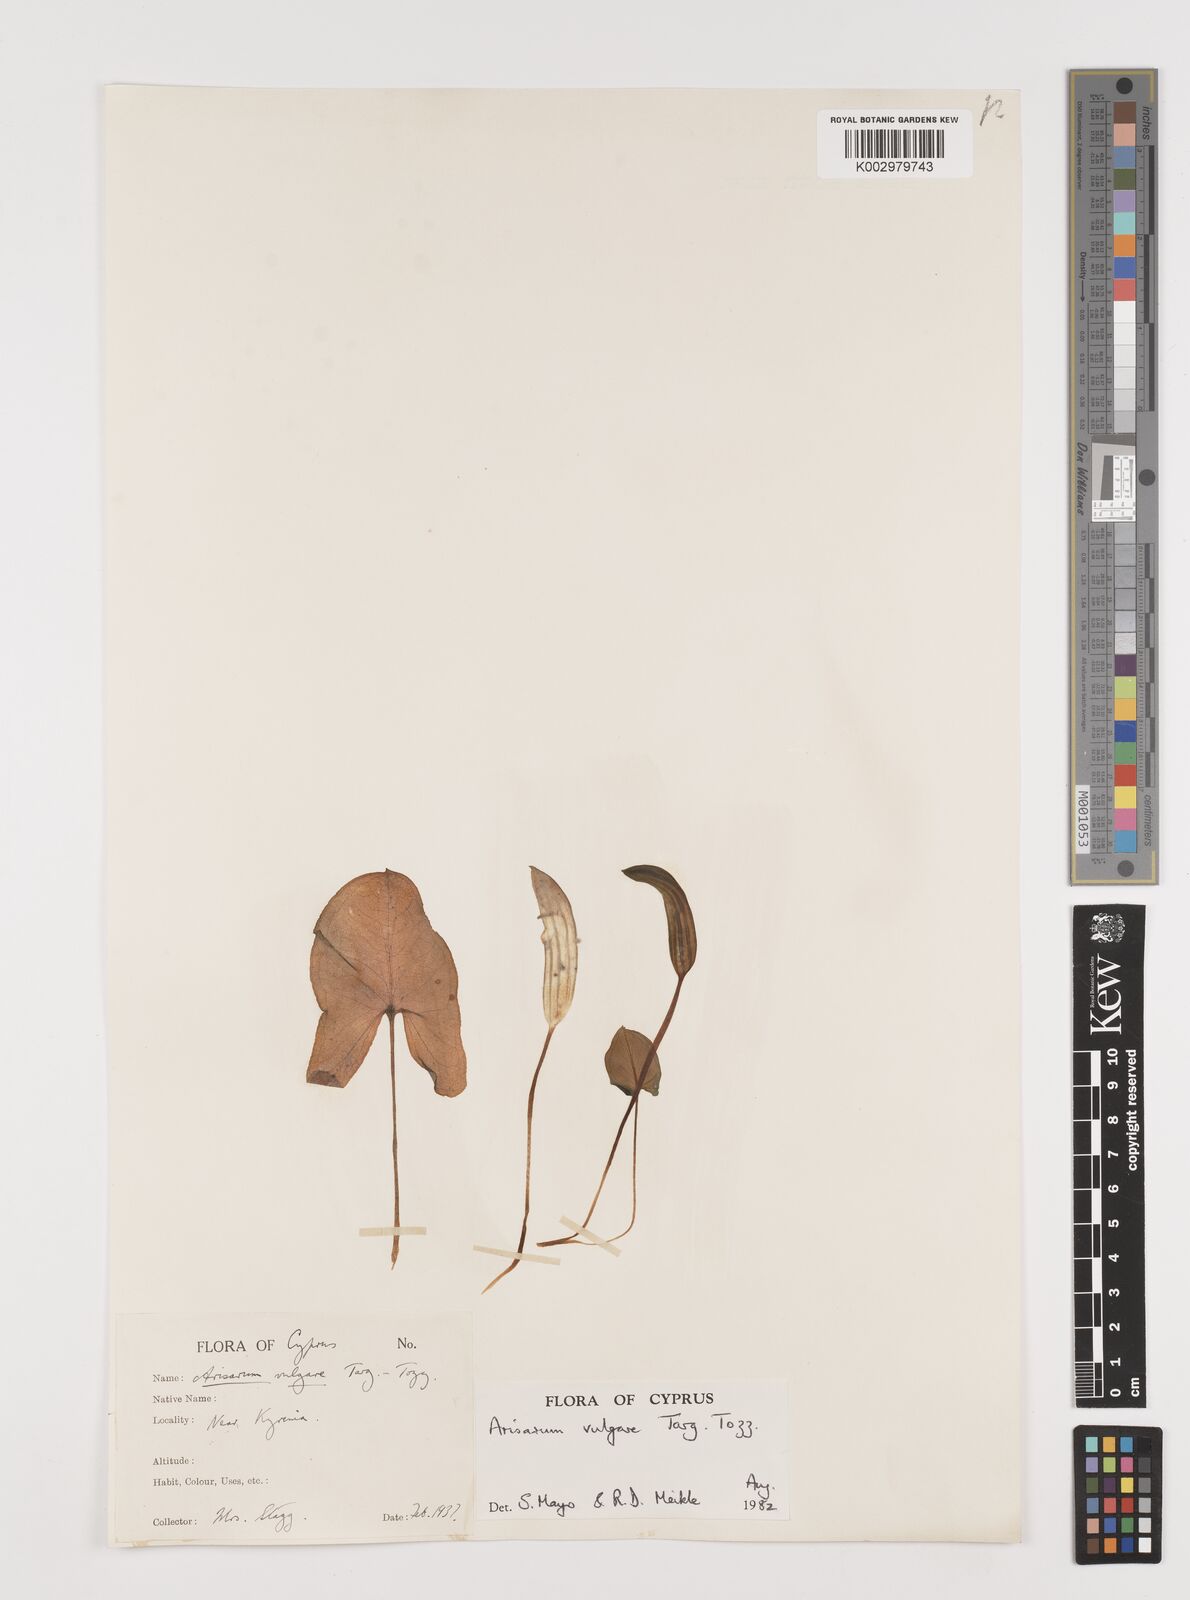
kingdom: Plantae
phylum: Tracheophyta
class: Liliopsida
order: Alismatales
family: Araceae
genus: Arisarum
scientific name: Arisarum vulgare
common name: Common arisarum
